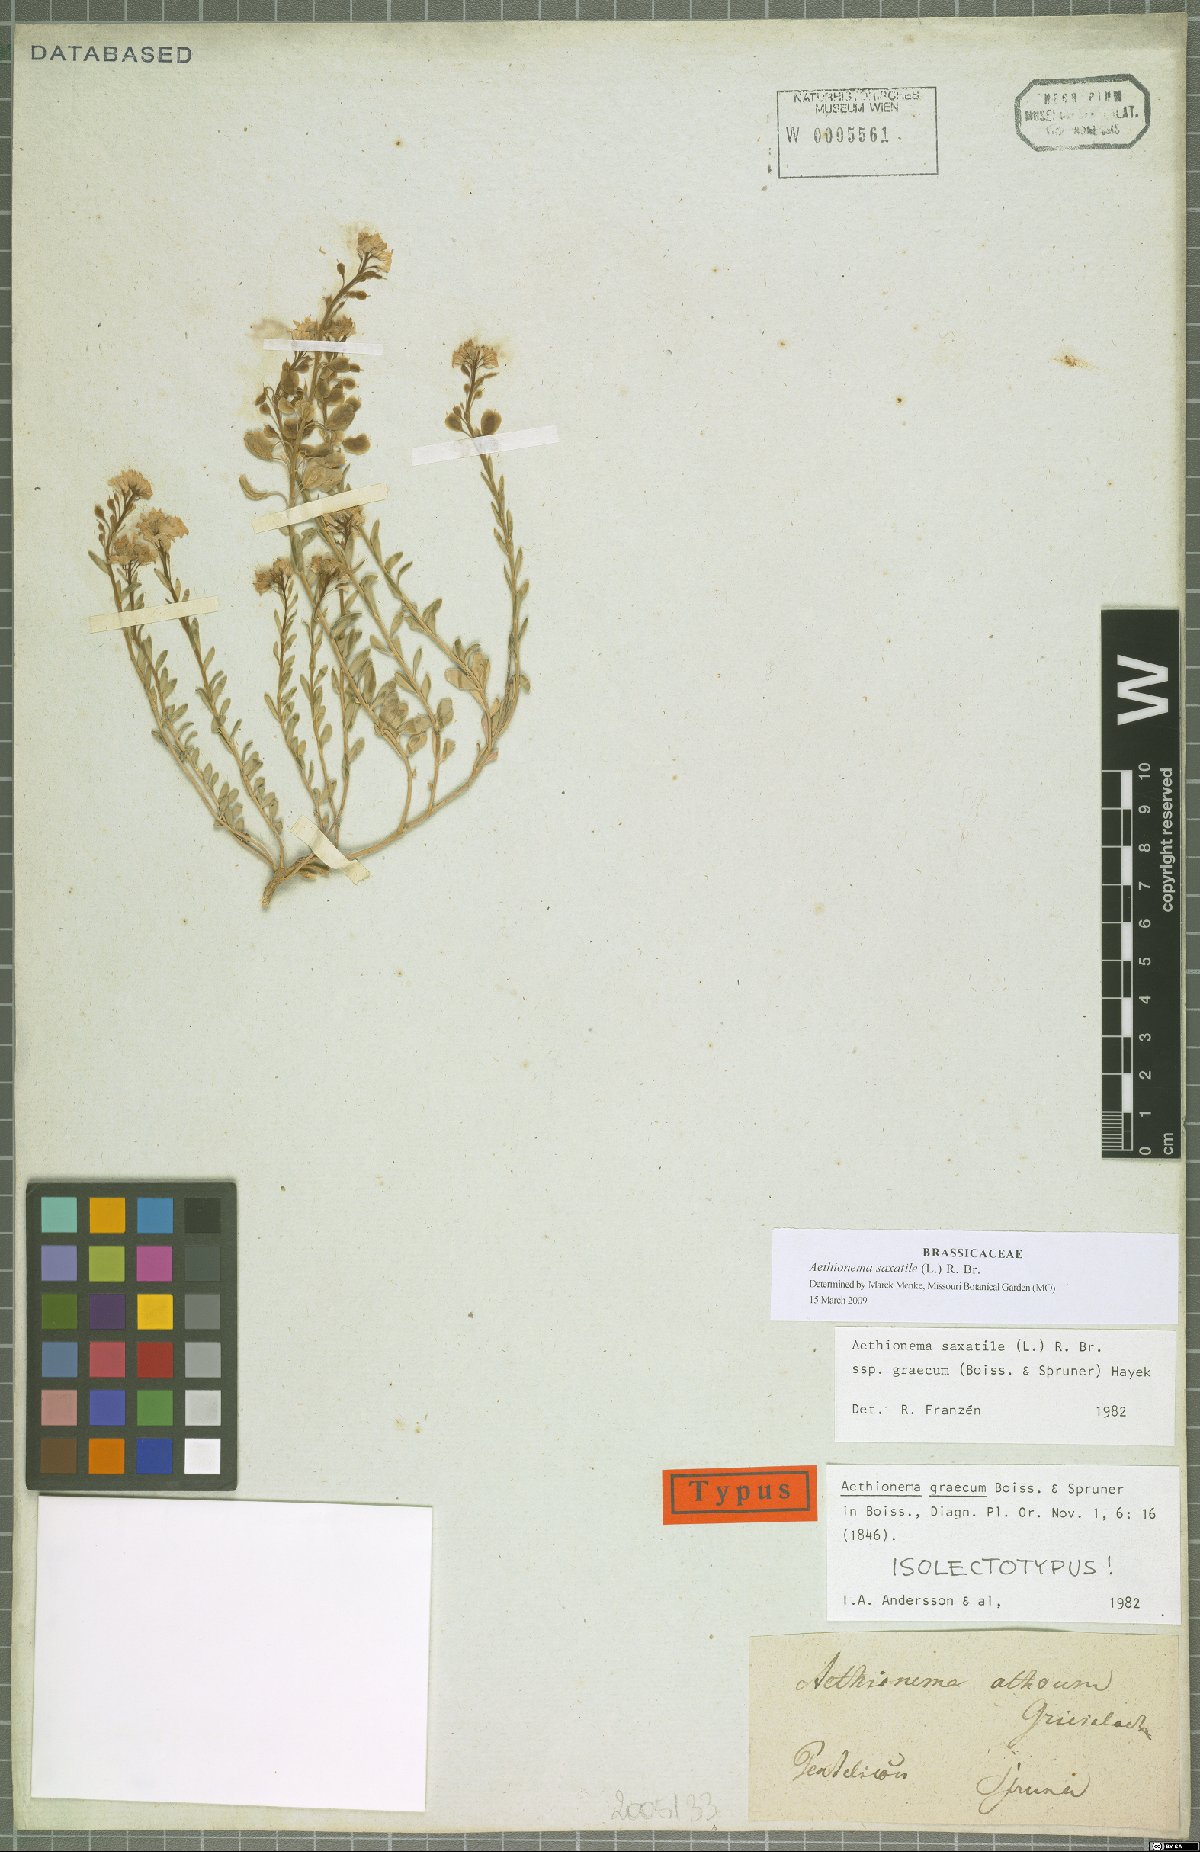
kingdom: Plantae
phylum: Tracheophyta
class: Magnoliopsida
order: Brassicales
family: Brassicaceae
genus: Aethionema
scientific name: Aethionema saxatile
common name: Burnt candytuft
